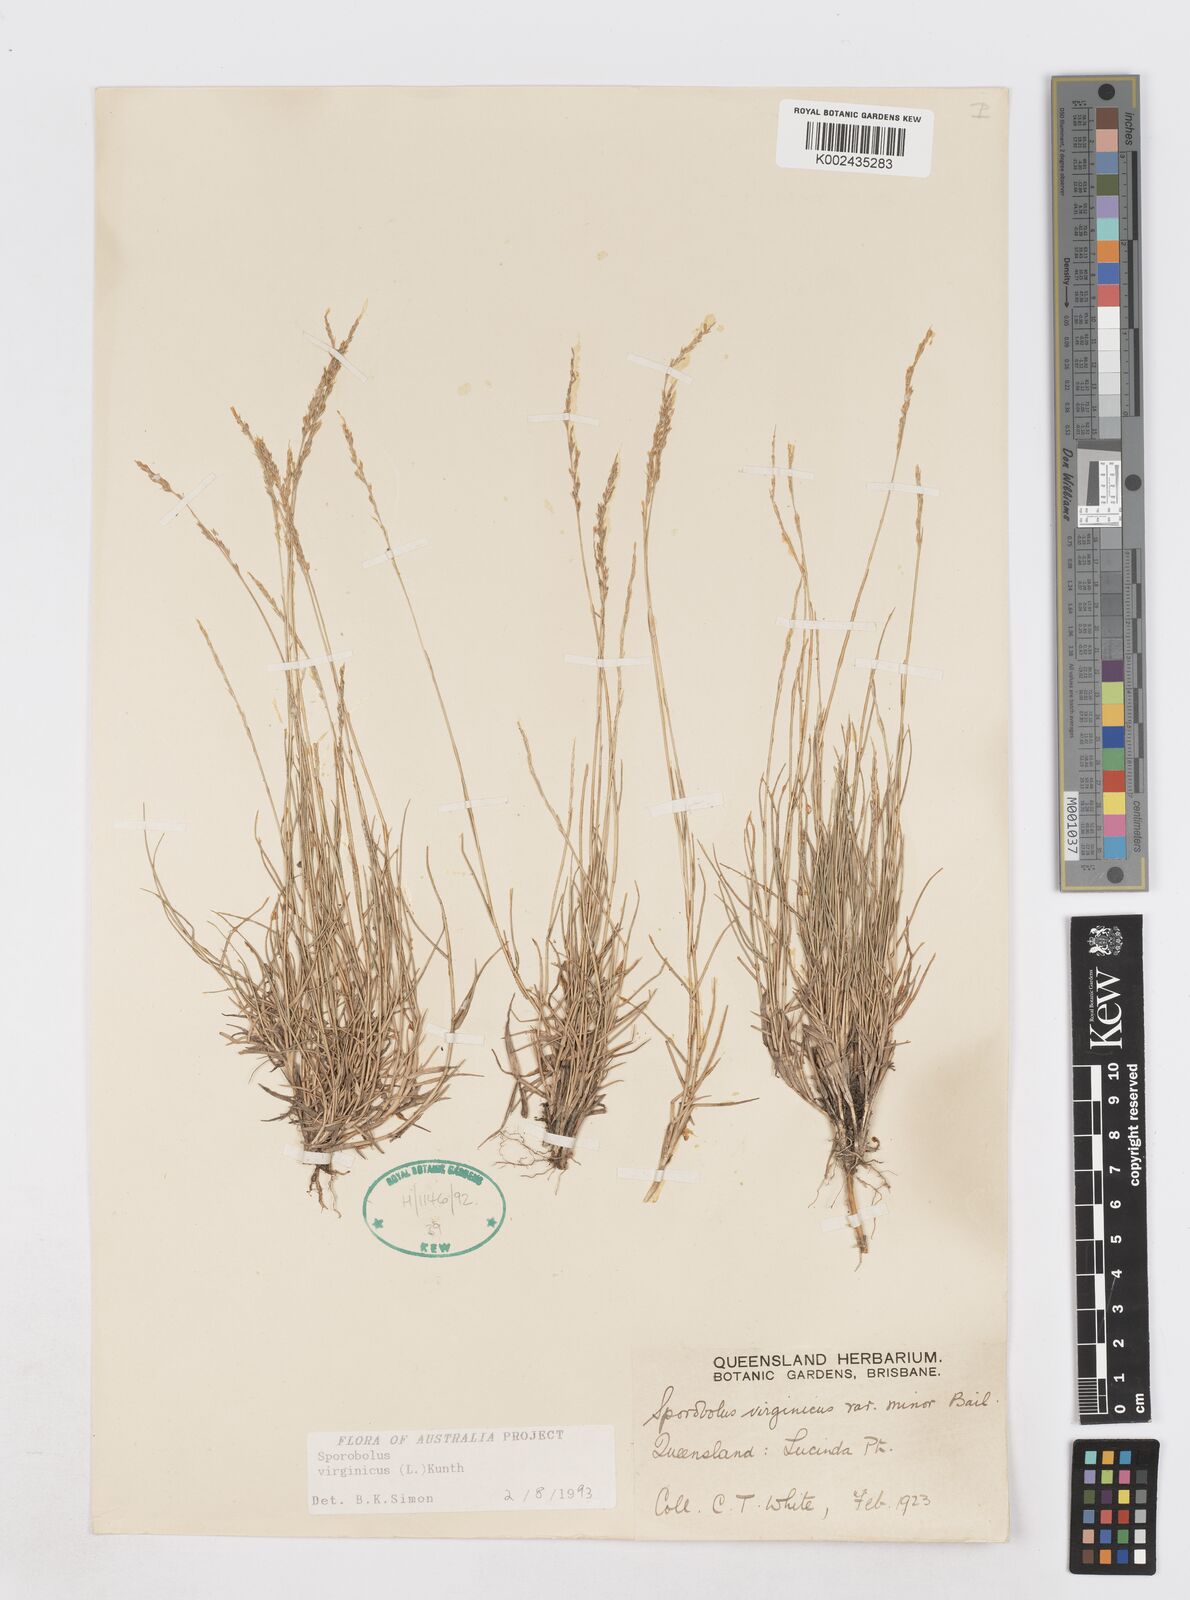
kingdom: Plantae
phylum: Tracheophyta
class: Liliopsida
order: Poales
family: Poaceae
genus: Sporobolus
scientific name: Sporobolus virginicus
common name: Beach dropseed
